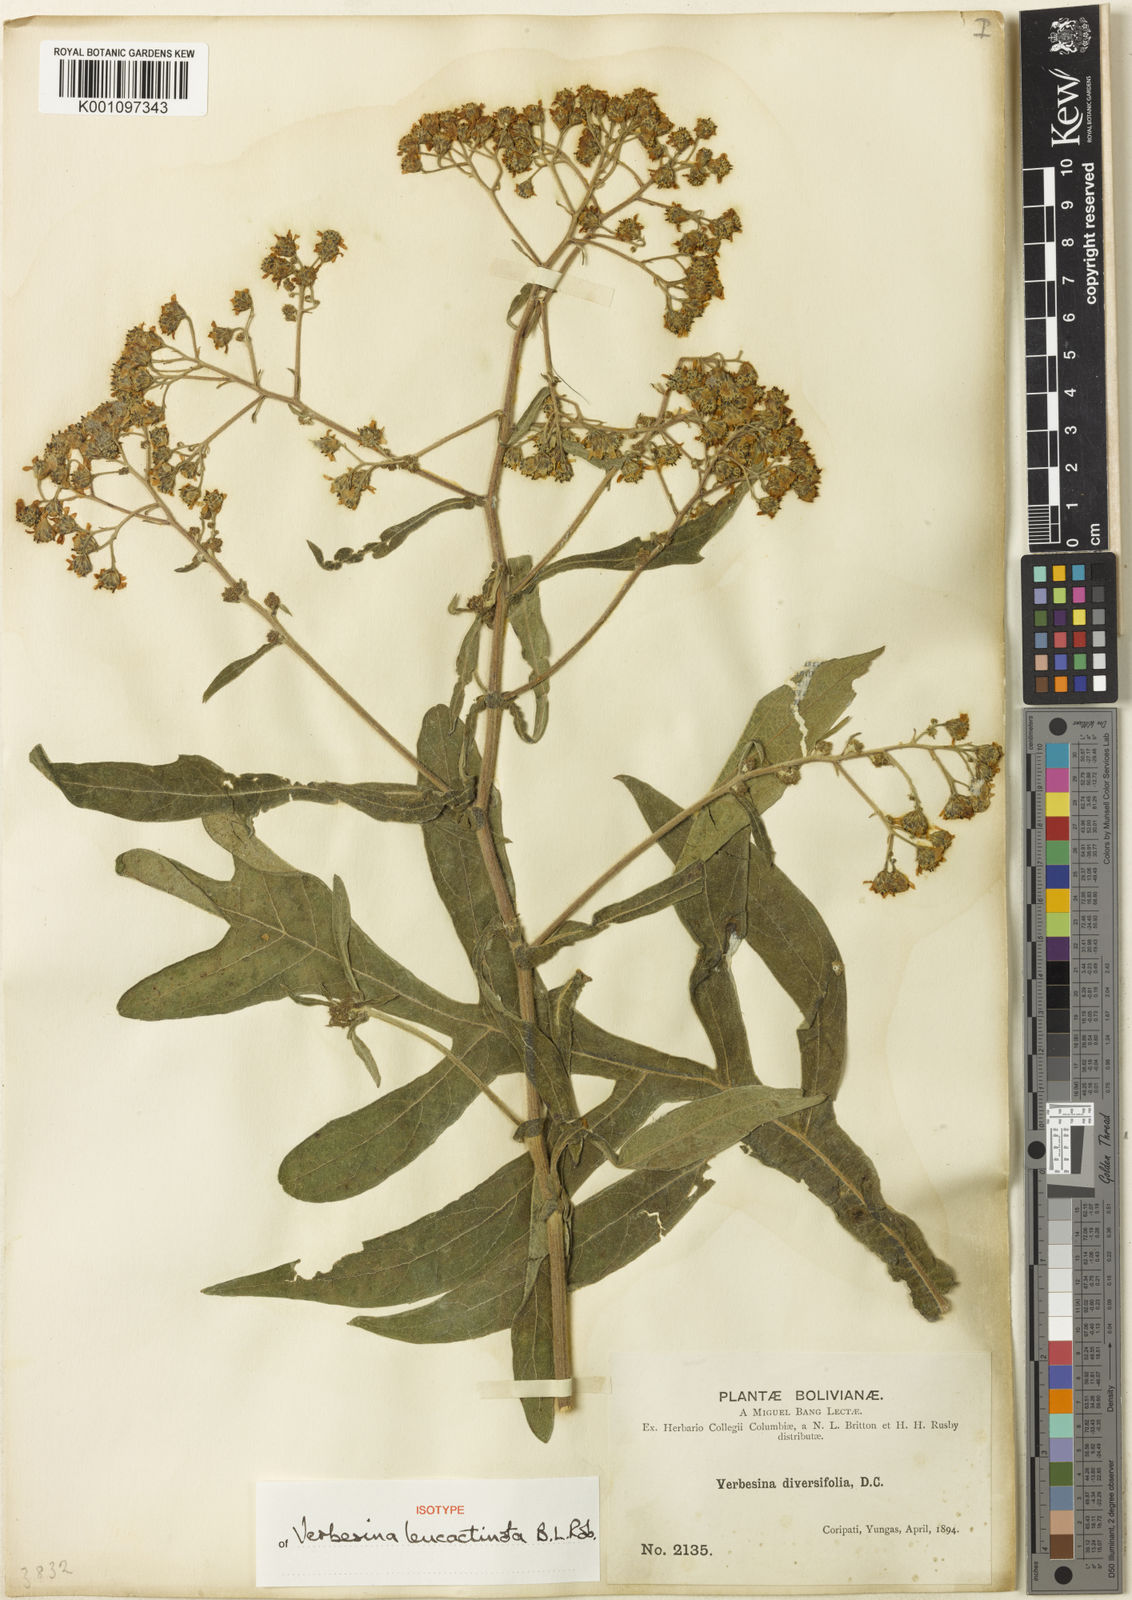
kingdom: Plantae
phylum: Tracheophyta
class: Magnoliopsida
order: Asterales
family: Asteraceae
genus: Verbesina
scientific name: Verbesina leucactinota
